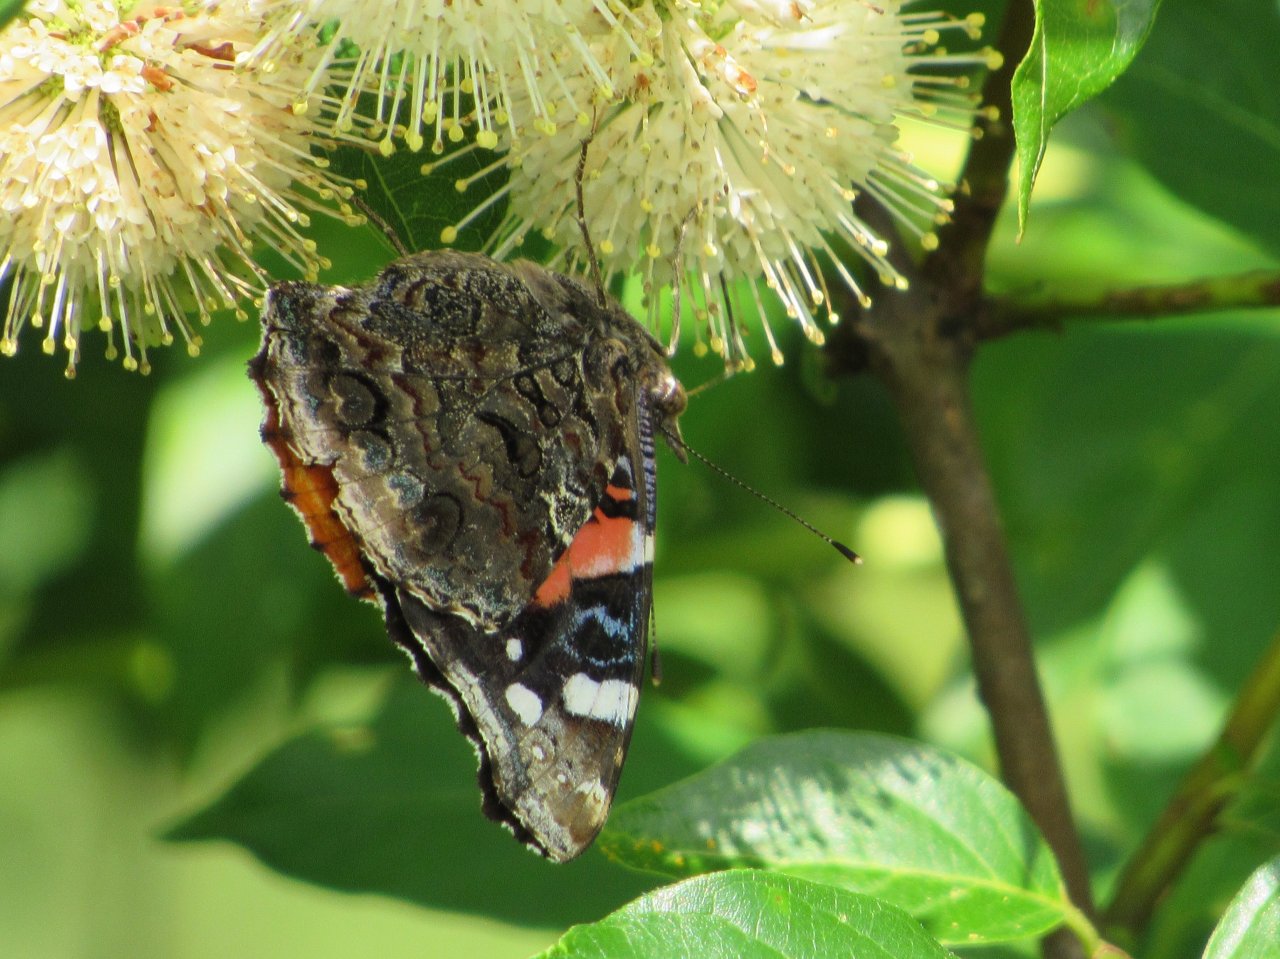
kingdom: Animalia
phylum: Arthropoda
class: Insecta
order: Lepidoptera
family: Nymphalidae
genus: Vanessa
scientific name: Vanessa atalanta
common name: Red Admiral
